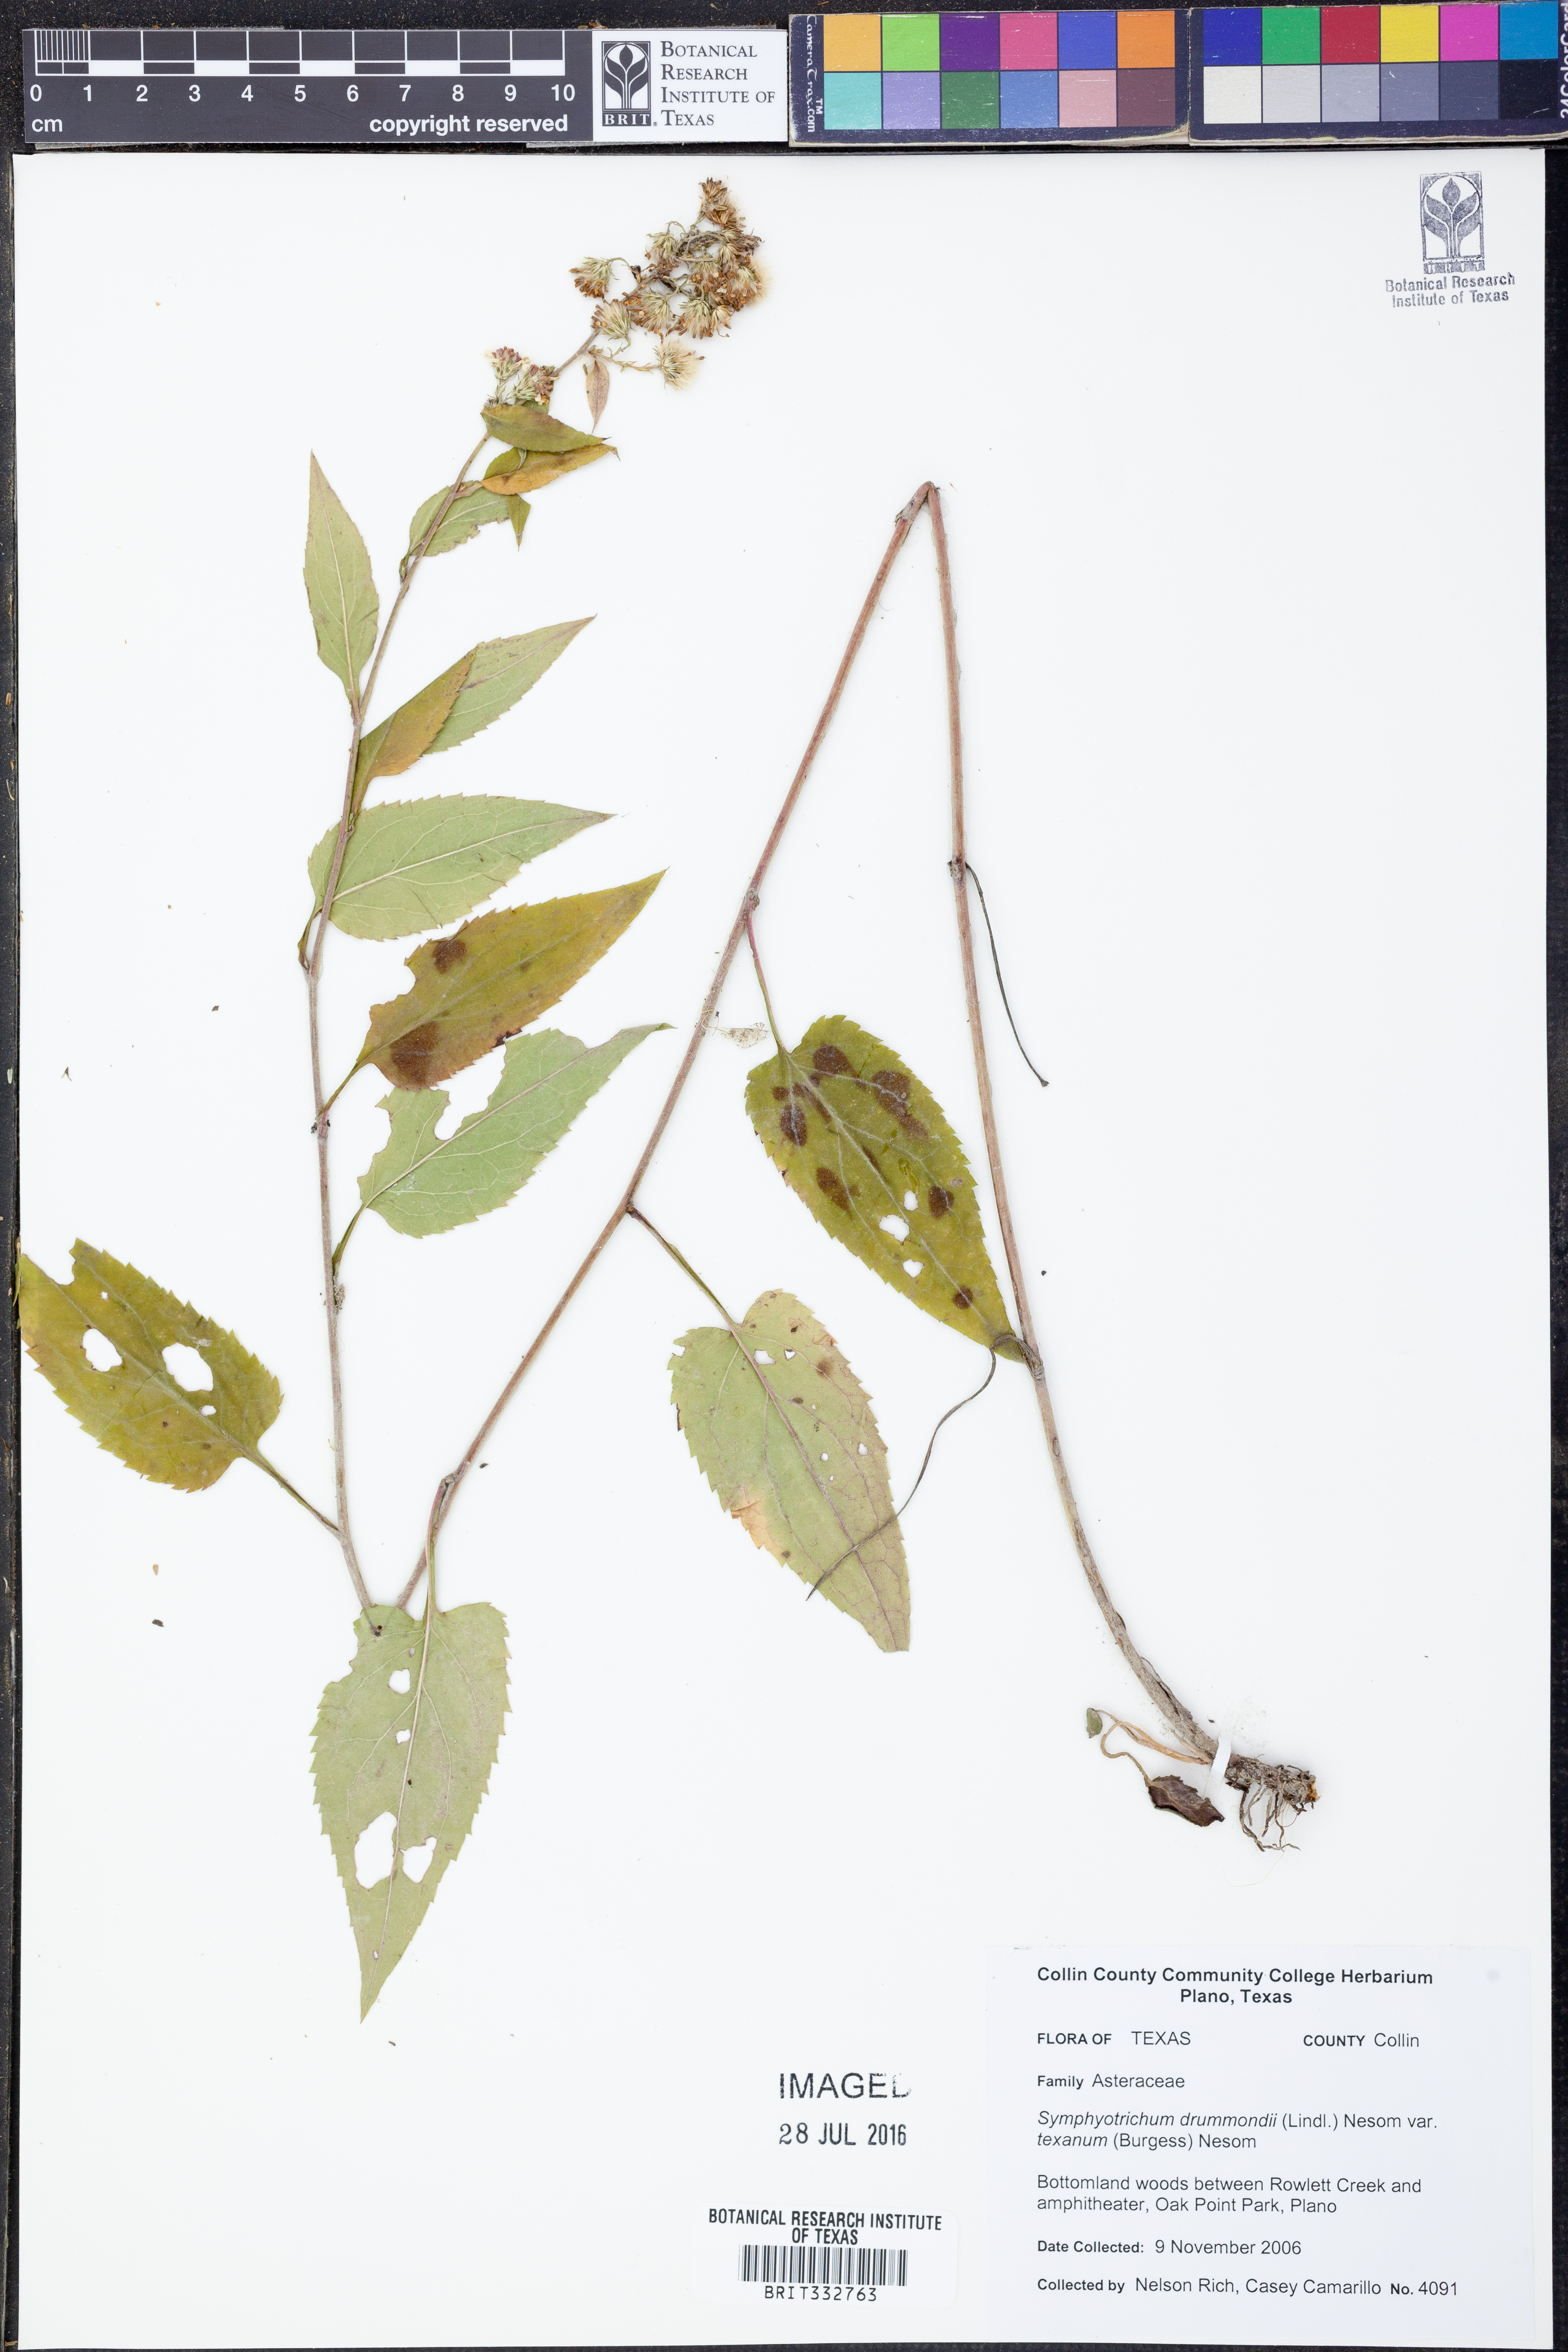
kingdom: Plantae
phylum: Tracheophyta
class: Magnoliopsida
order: Asterales
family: Asteraceae
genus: Symphyotrichum
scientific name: Symphyotrichum drummondii
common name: Drummond's aster
